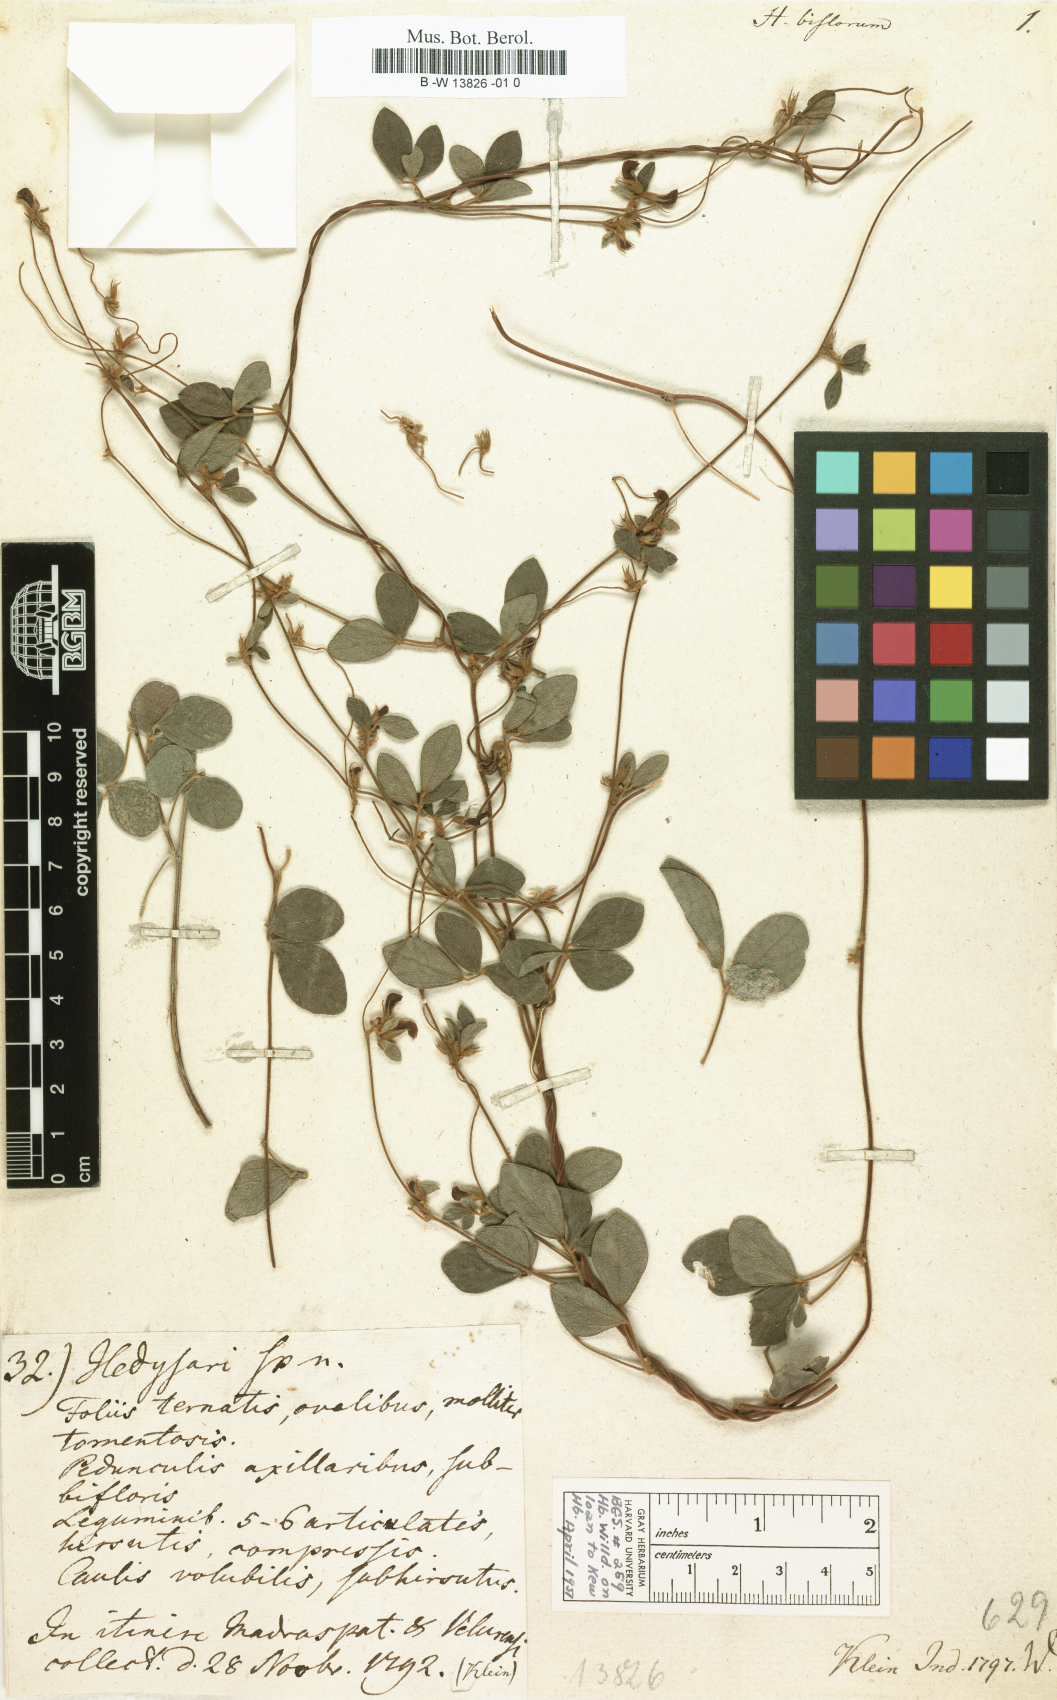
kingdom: Plantae
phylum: Tracheophyta
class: Magnoliopsida
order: Fabales
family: Fabaceae
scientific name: Fabaceae
